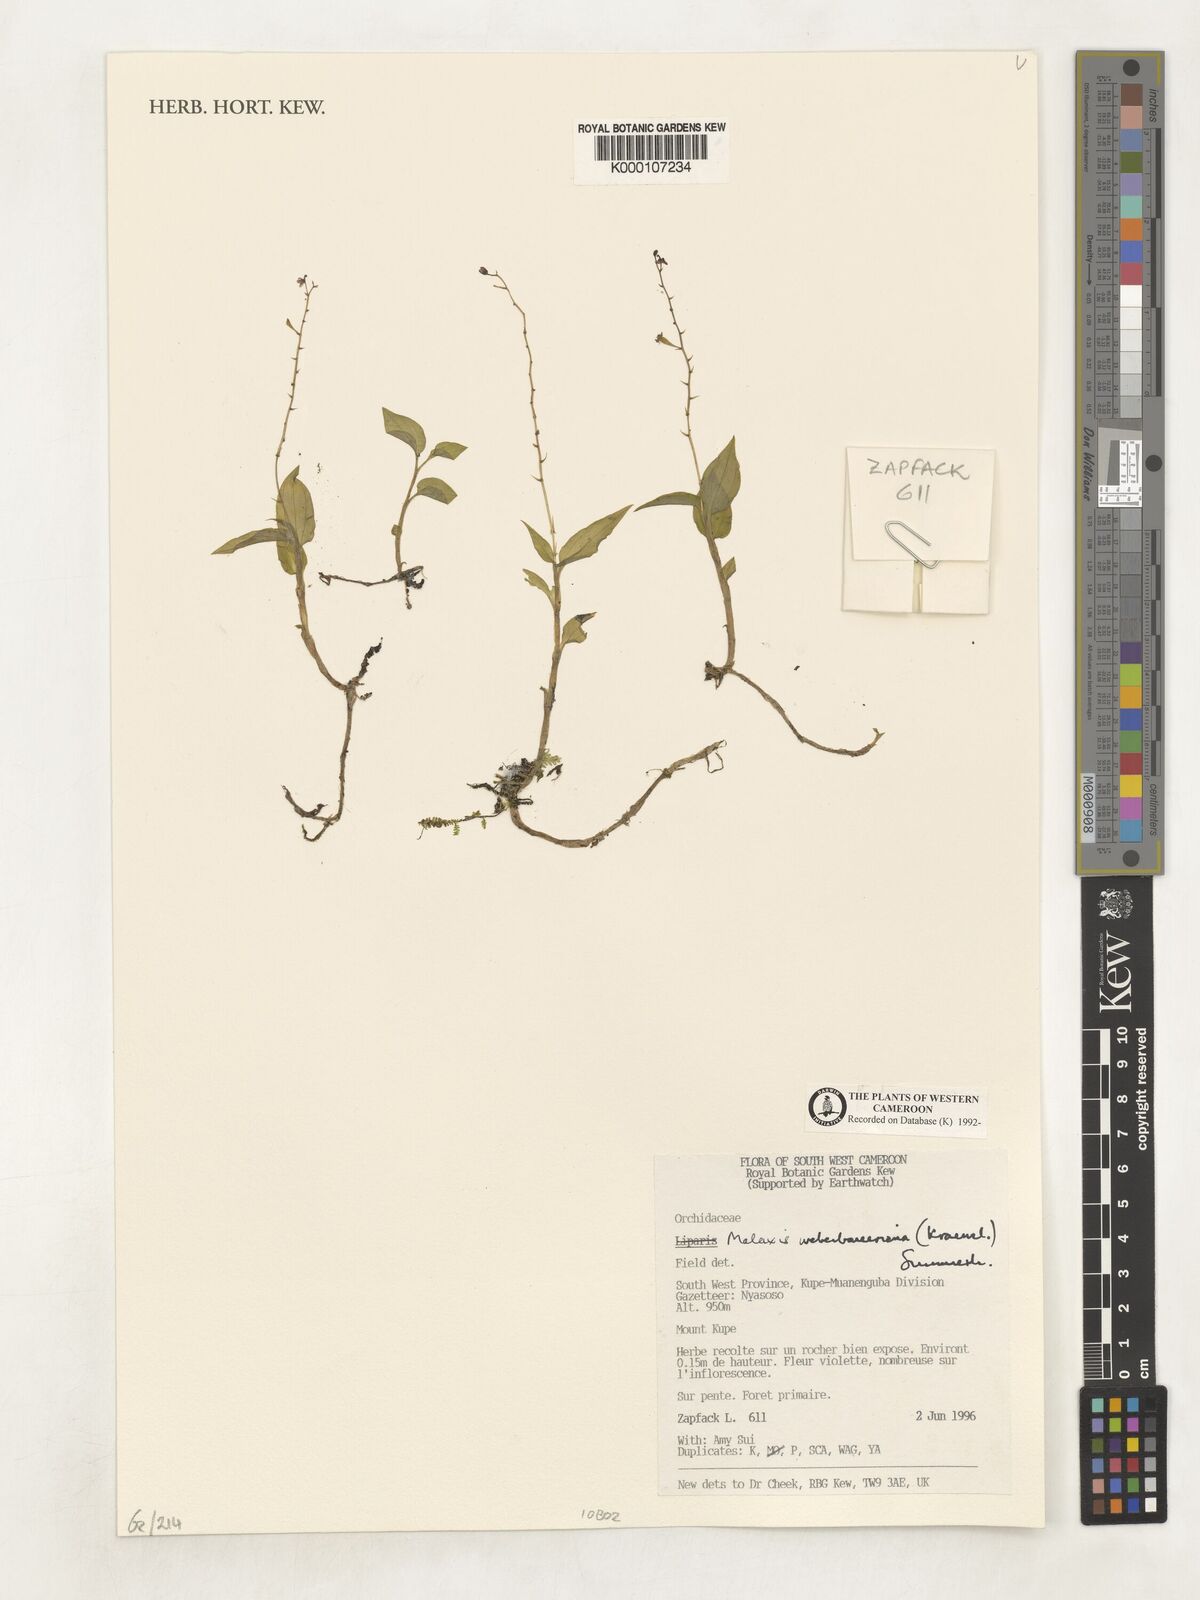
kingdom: Plantae
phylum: Tracheophyta
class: Liliopsida
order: Asparagales
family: Orchidaceae
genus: Malaxis
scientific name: Malaxis weberbaueriana
